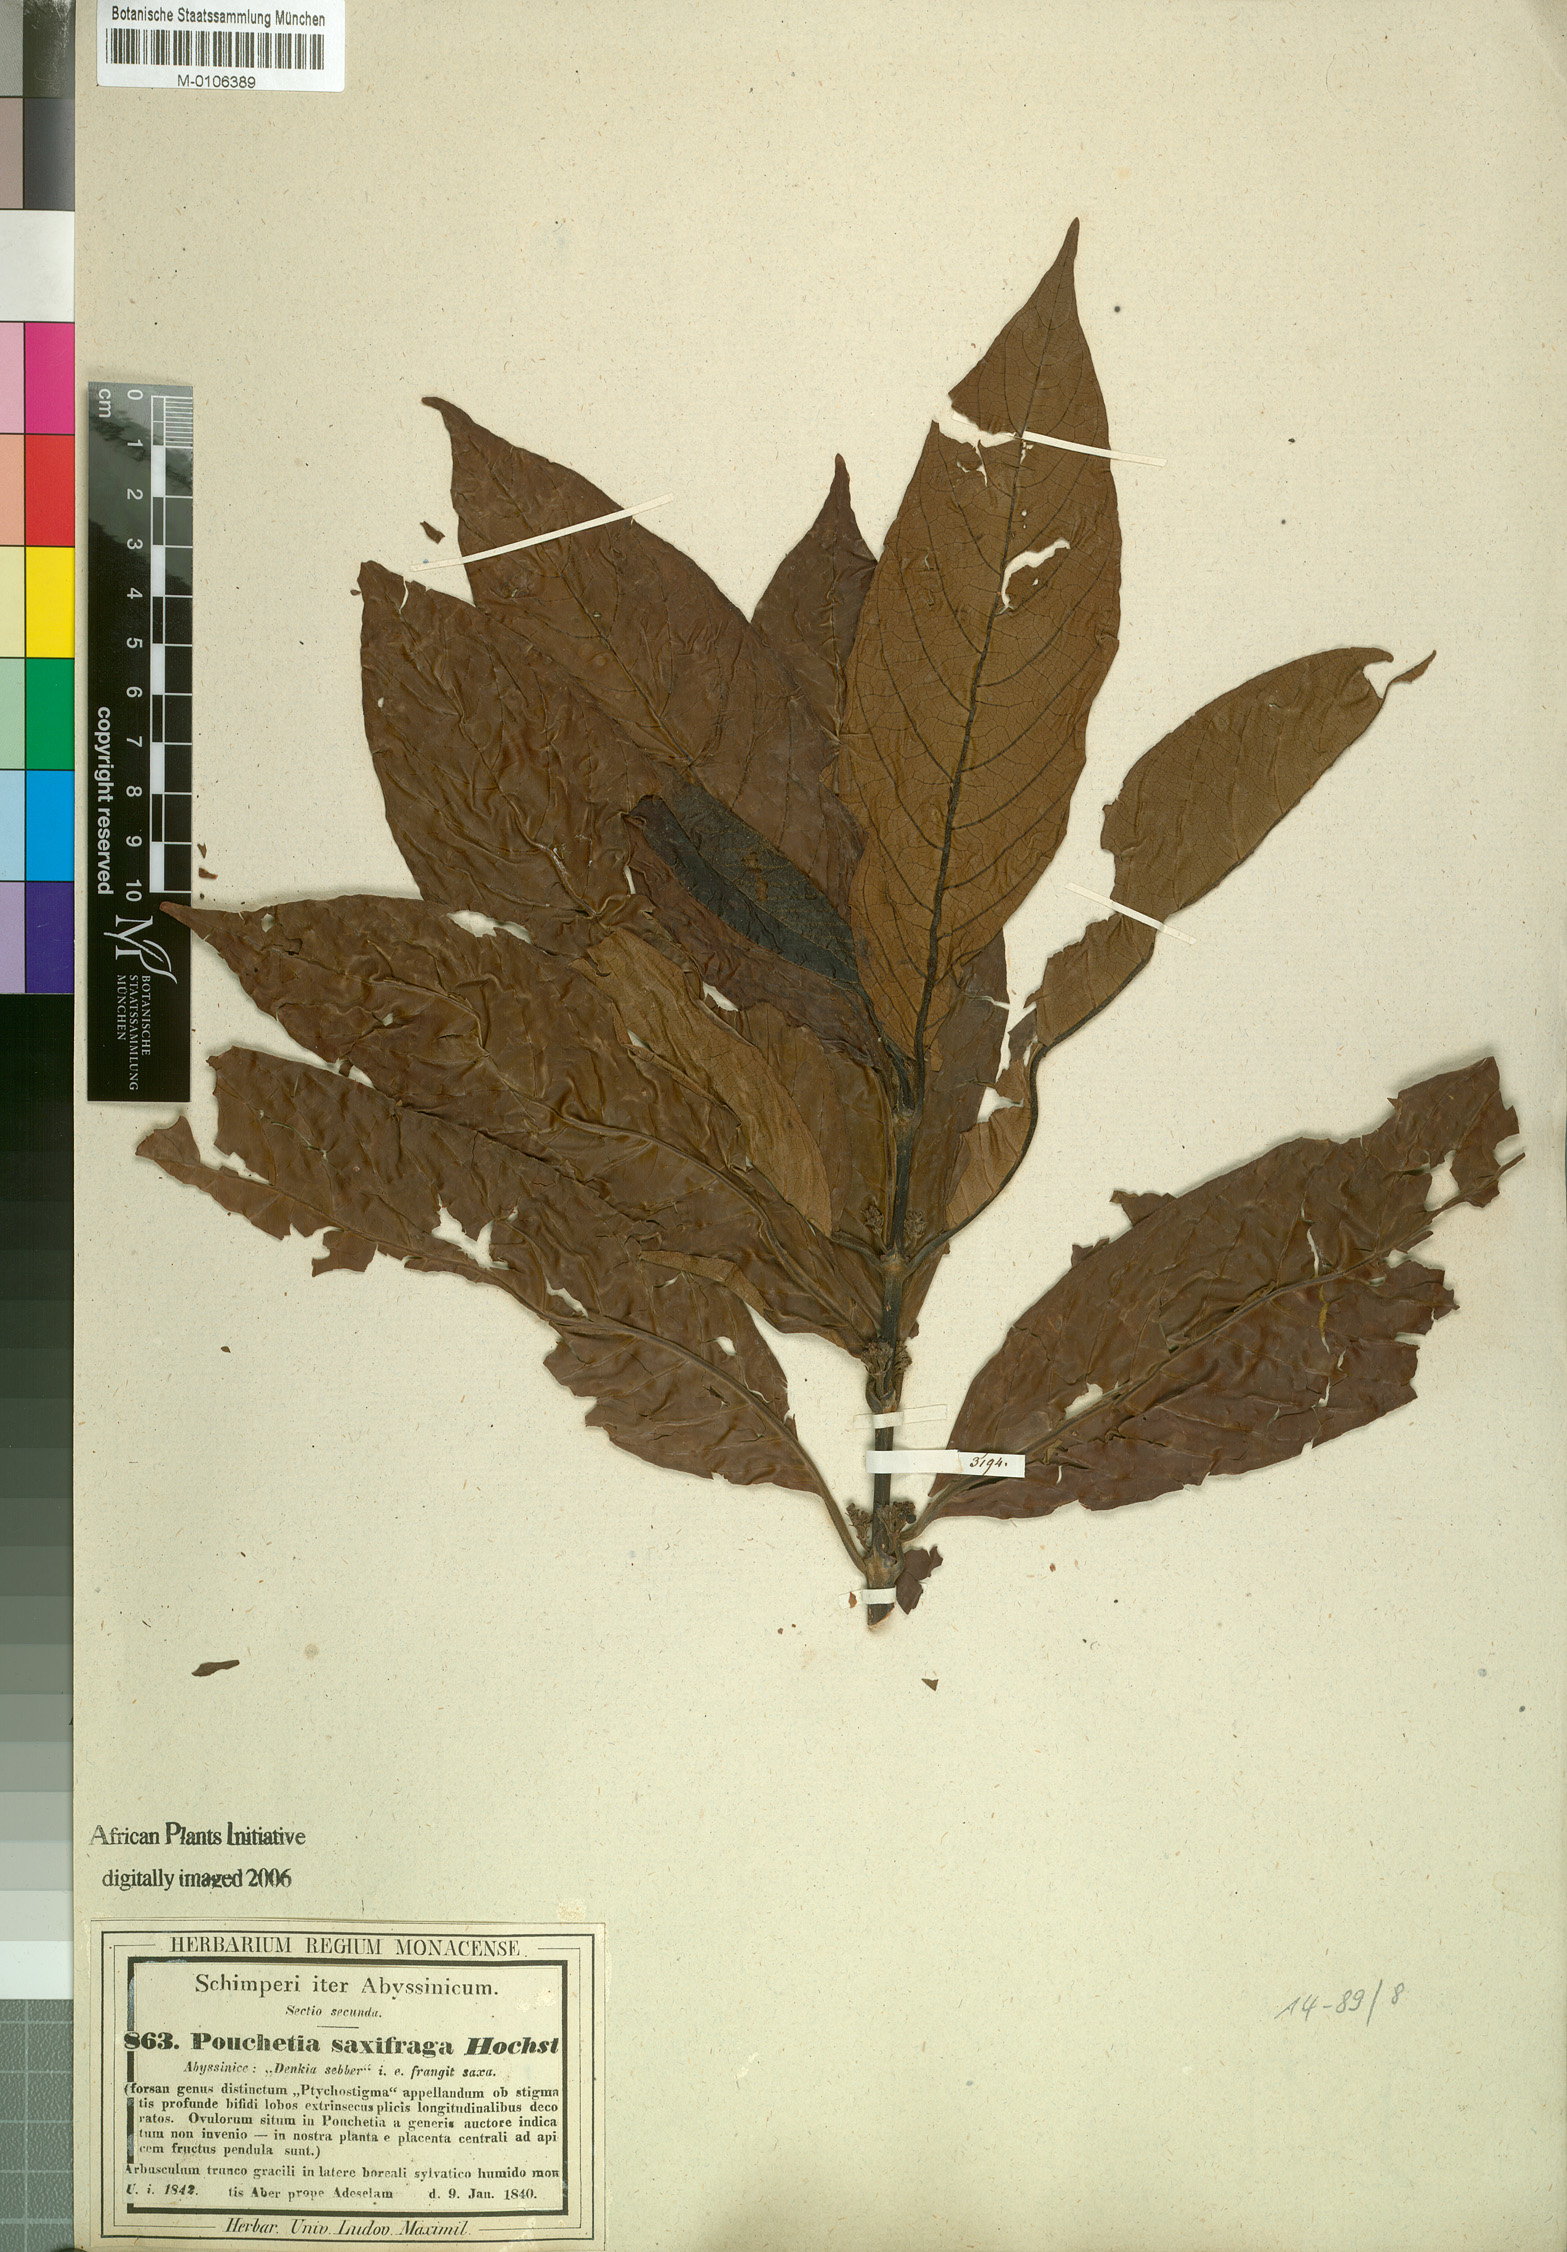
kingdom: Plantae
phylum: Tracheophyta
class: Magnoliopsida
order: Gentianales
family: Rubiaceae
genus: Pouchetia
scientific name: Pouchetia saxifraga
